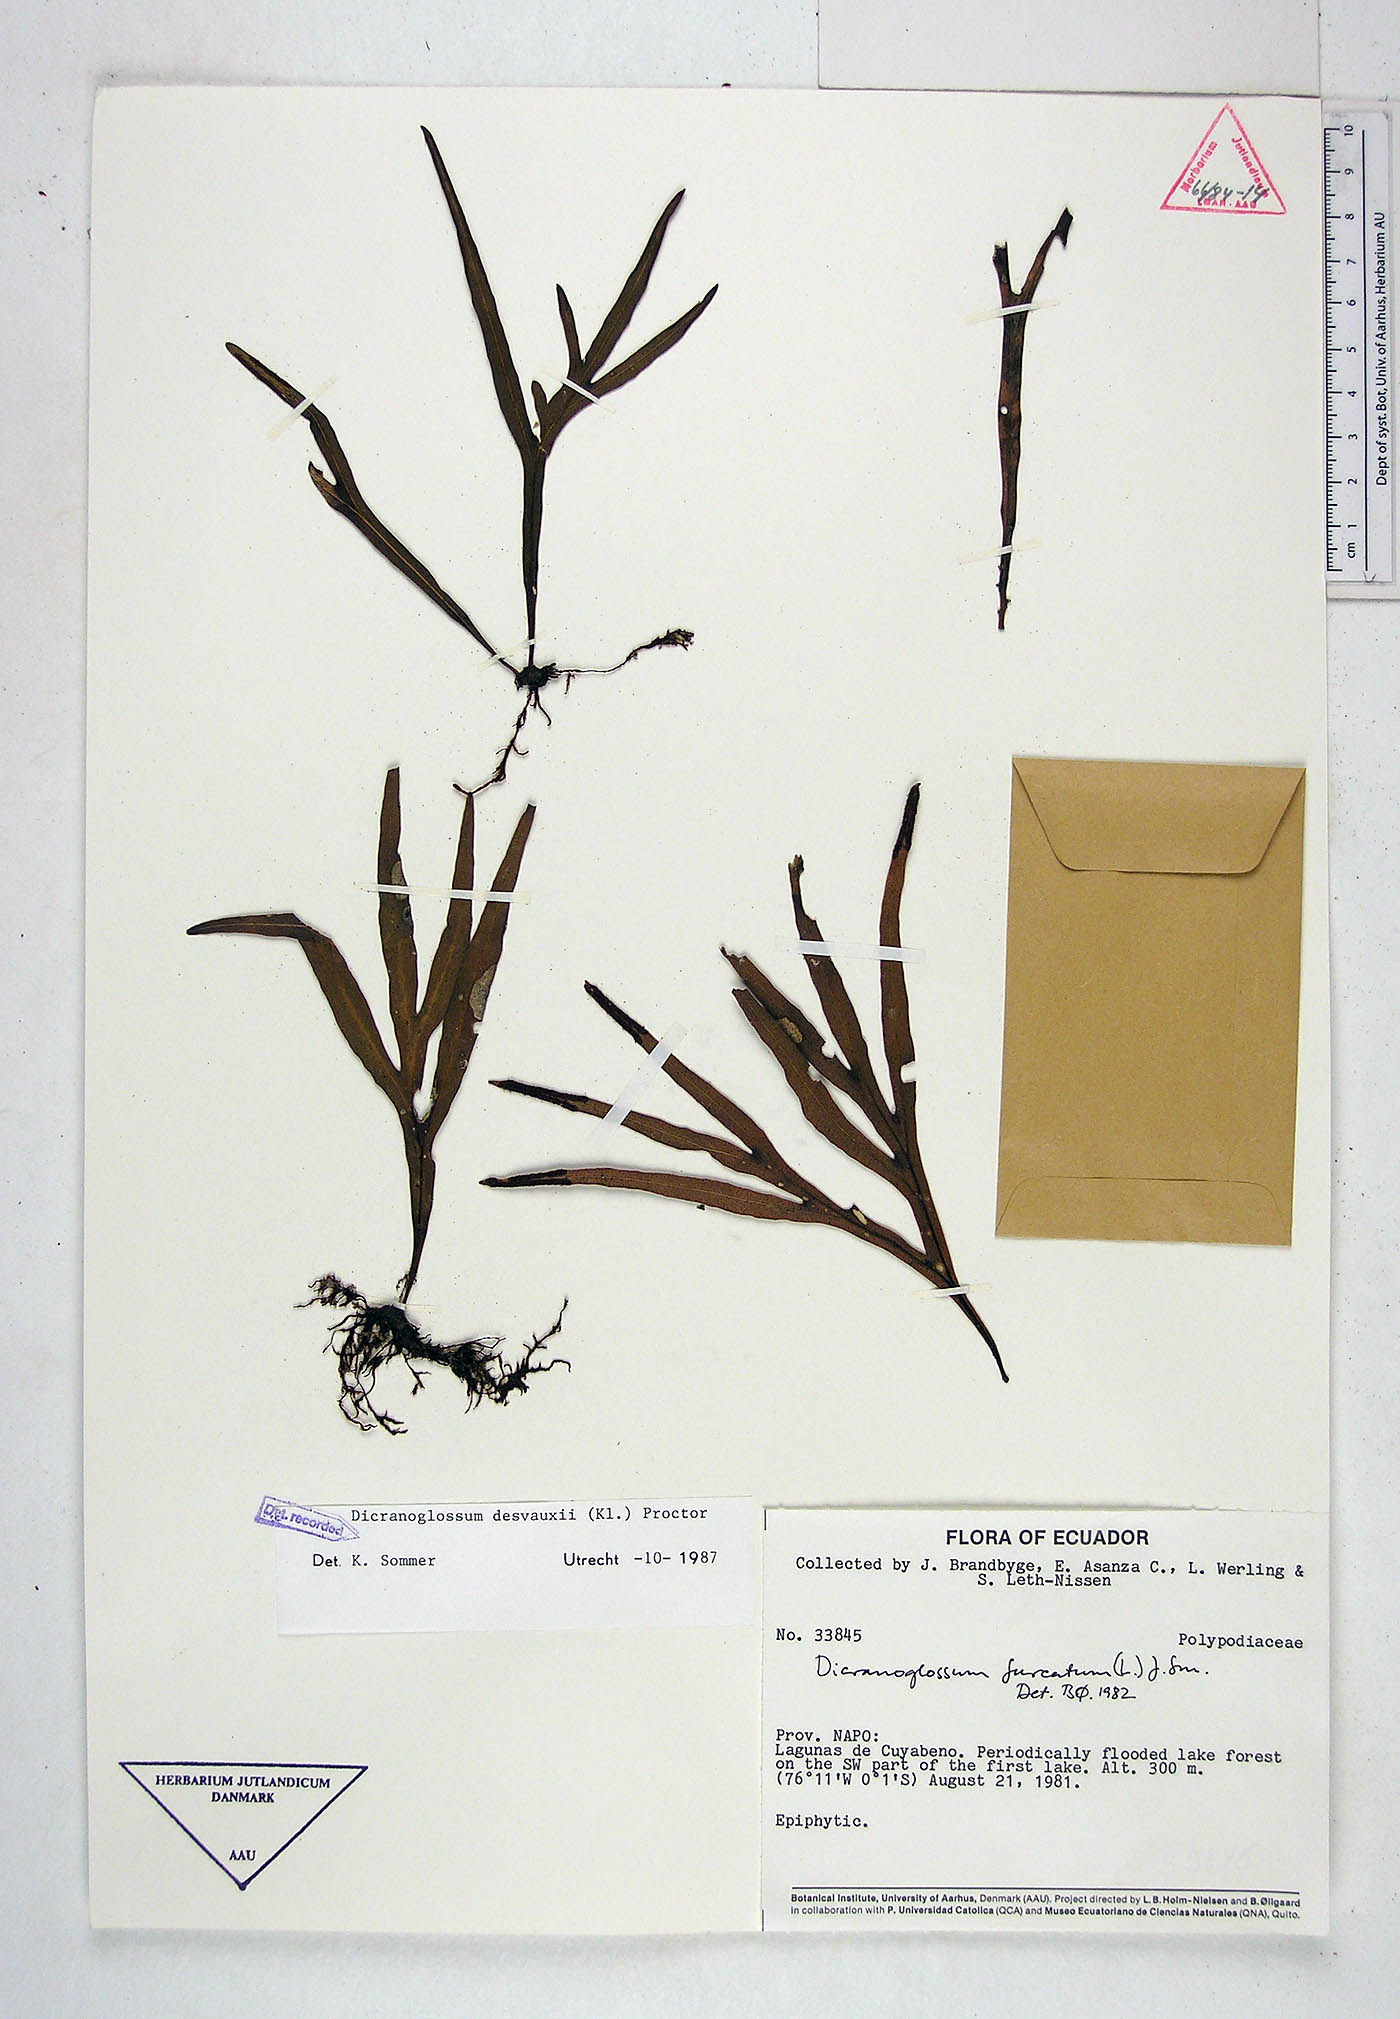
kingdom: Plantae
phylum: Tracheophyta
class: Polypodiopsida
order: Polypodiales
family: Polypodiaceae
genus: Pleopeltis
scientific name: Pleopeltis desvauxii
